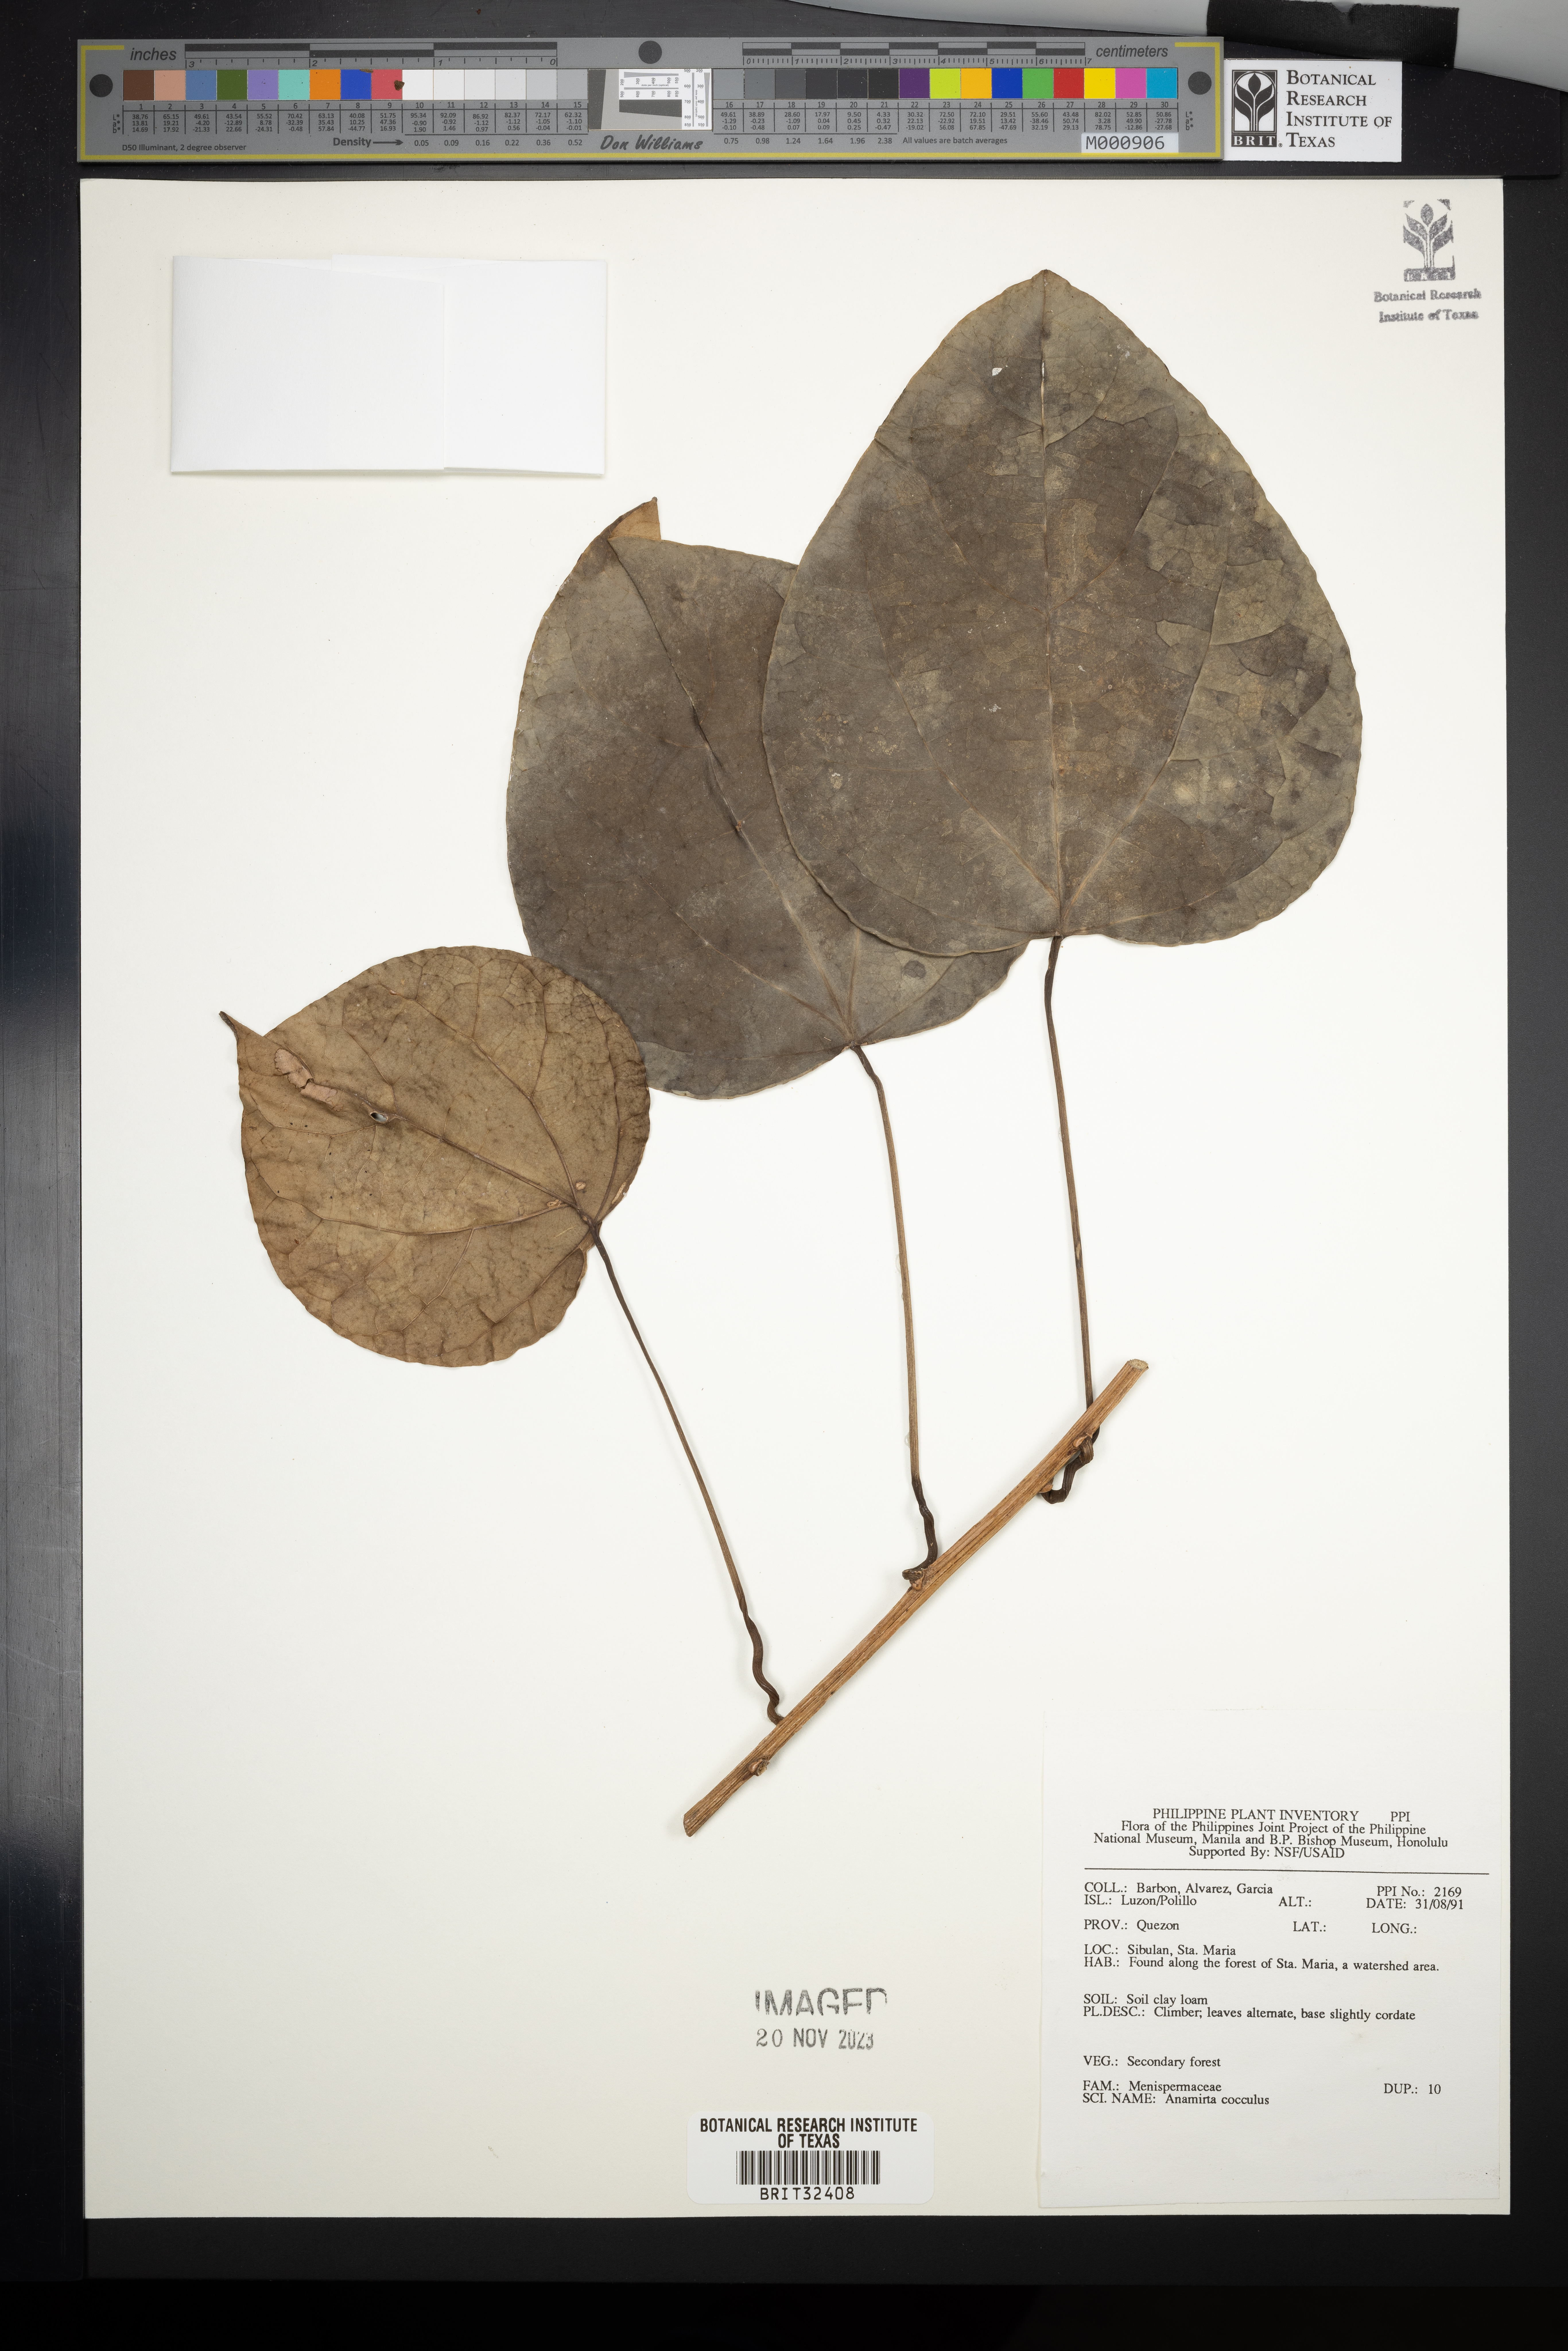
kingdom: Plantae
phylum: Tracheophyta
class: Magnoliopsida
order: Ranunculales
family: Menispermaceae
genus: Anamirta
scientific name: Anamirta cocculus
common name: Levantnut
